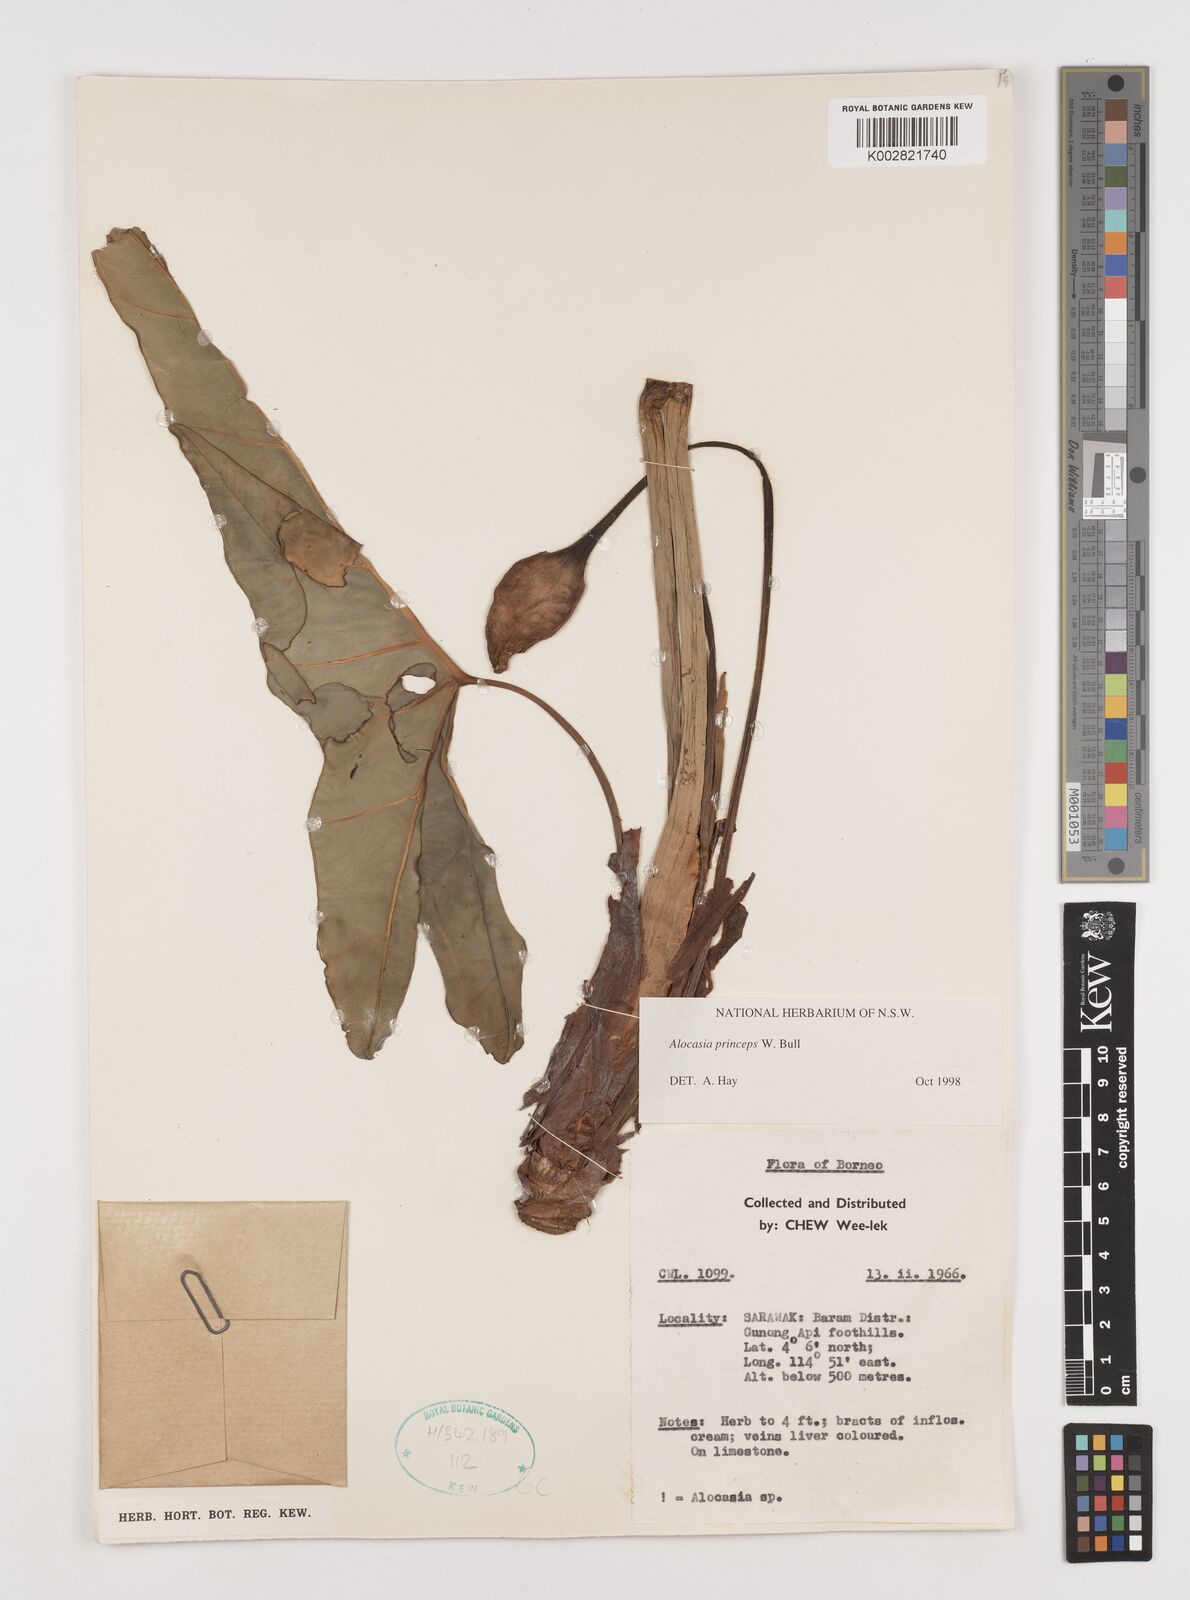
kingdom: Plantae
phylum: Tracheophyta
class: Liliopsida
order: Alismatales
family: Araceae
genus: Alocasia
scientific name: Alocasia princeps
